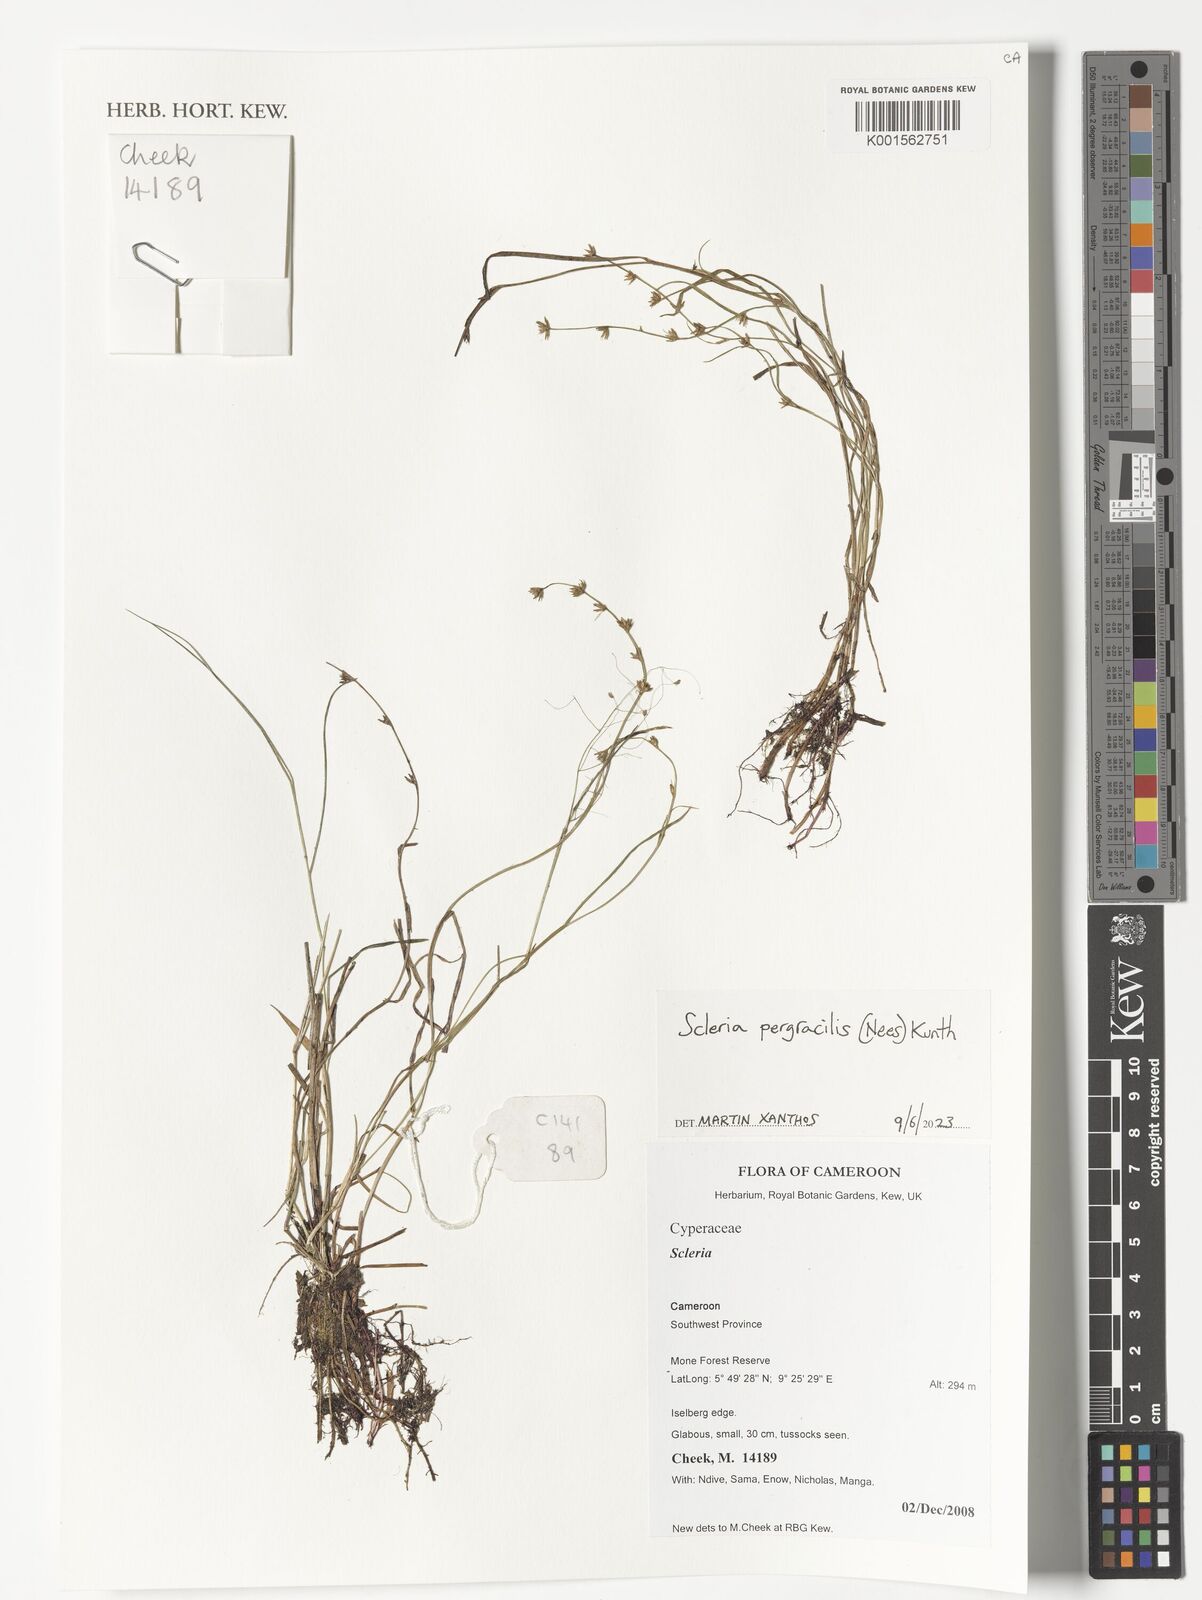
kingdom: Plantae
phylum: Tracheophyta
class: Liliopsida
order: Poales
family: Cyperaceae
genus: Scleria
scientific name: Scleria pergracilis
